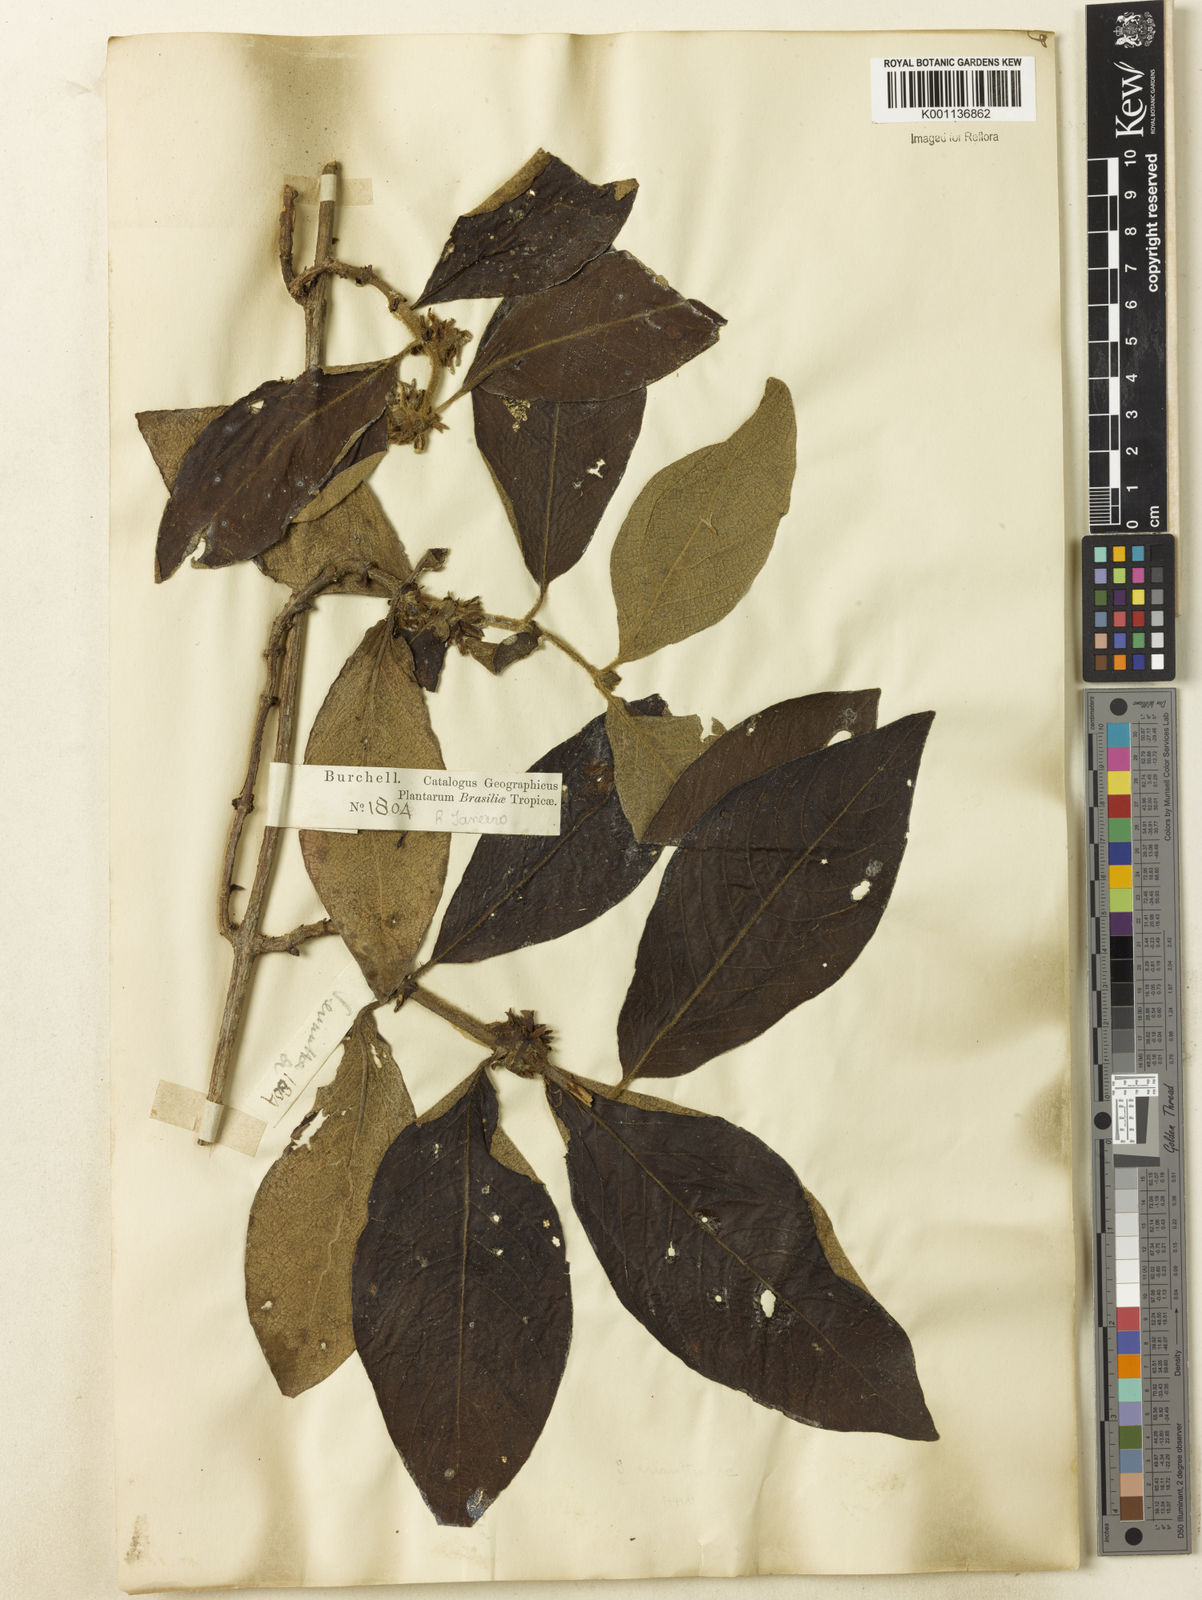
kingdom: Plantae
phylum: Tracheophyta
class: Magnoliopsida
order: Gentianales
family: Rubiaceae
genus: Sabicea
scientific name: Sabicea grisea
